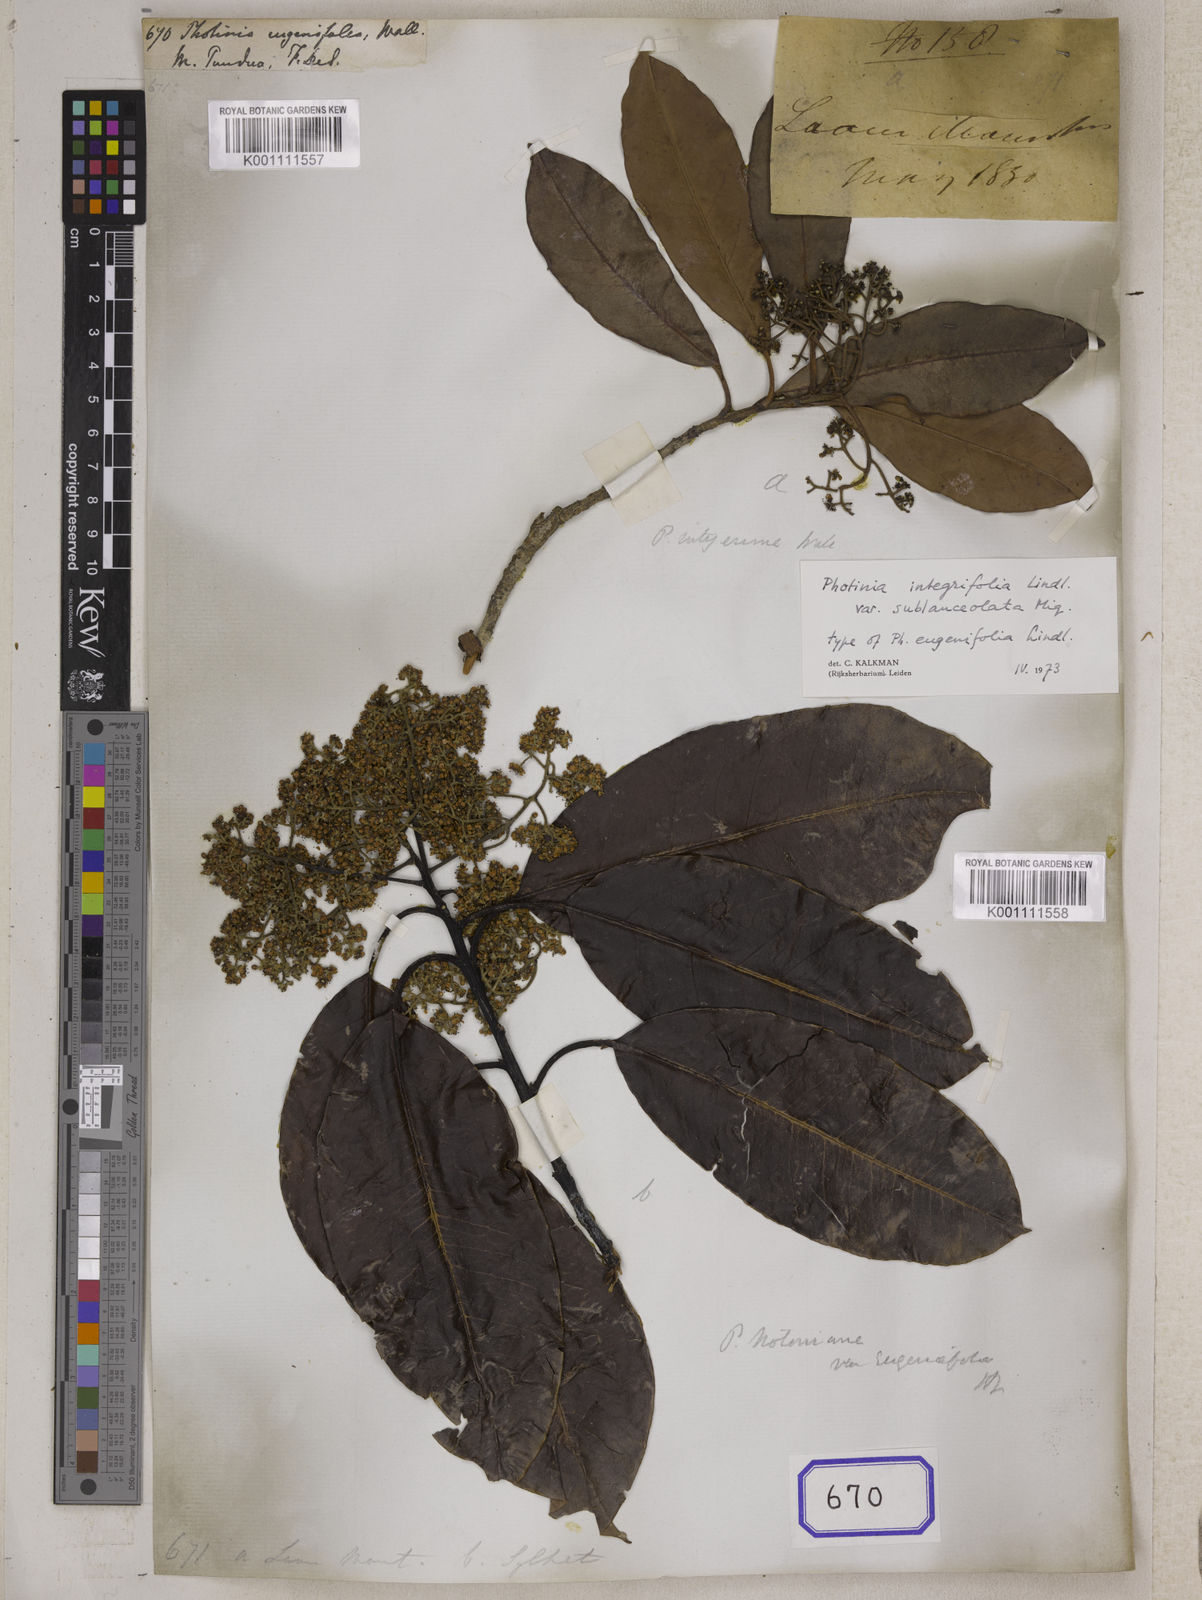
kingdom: Plantae
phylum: Tracheophyta
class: Magnoliopsida
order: Rosales
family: Rosaceae
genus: Photinia
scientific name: Photinia
